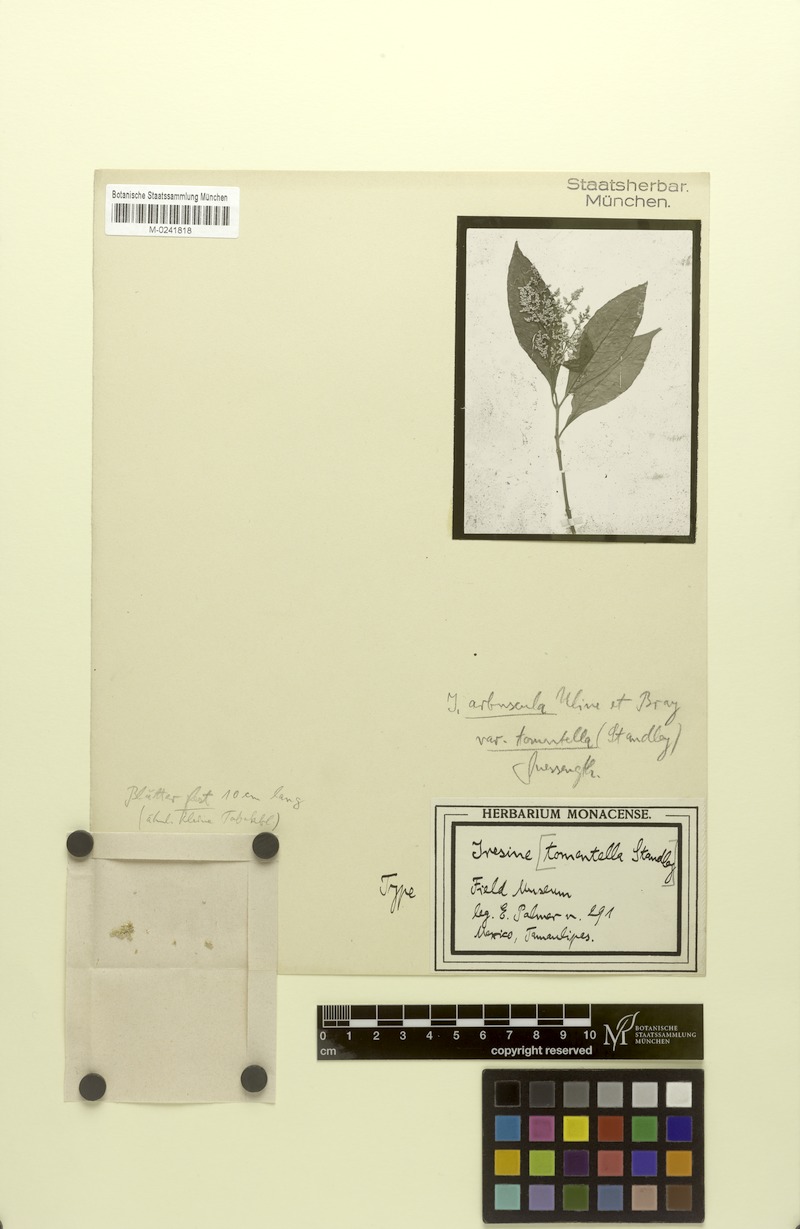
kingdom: Plantae
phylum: Tracheophyta
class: Magnoliopsida
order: Caryophyllales
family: Amaranthaceae
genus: Iresine
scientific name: Iresine tomentella
